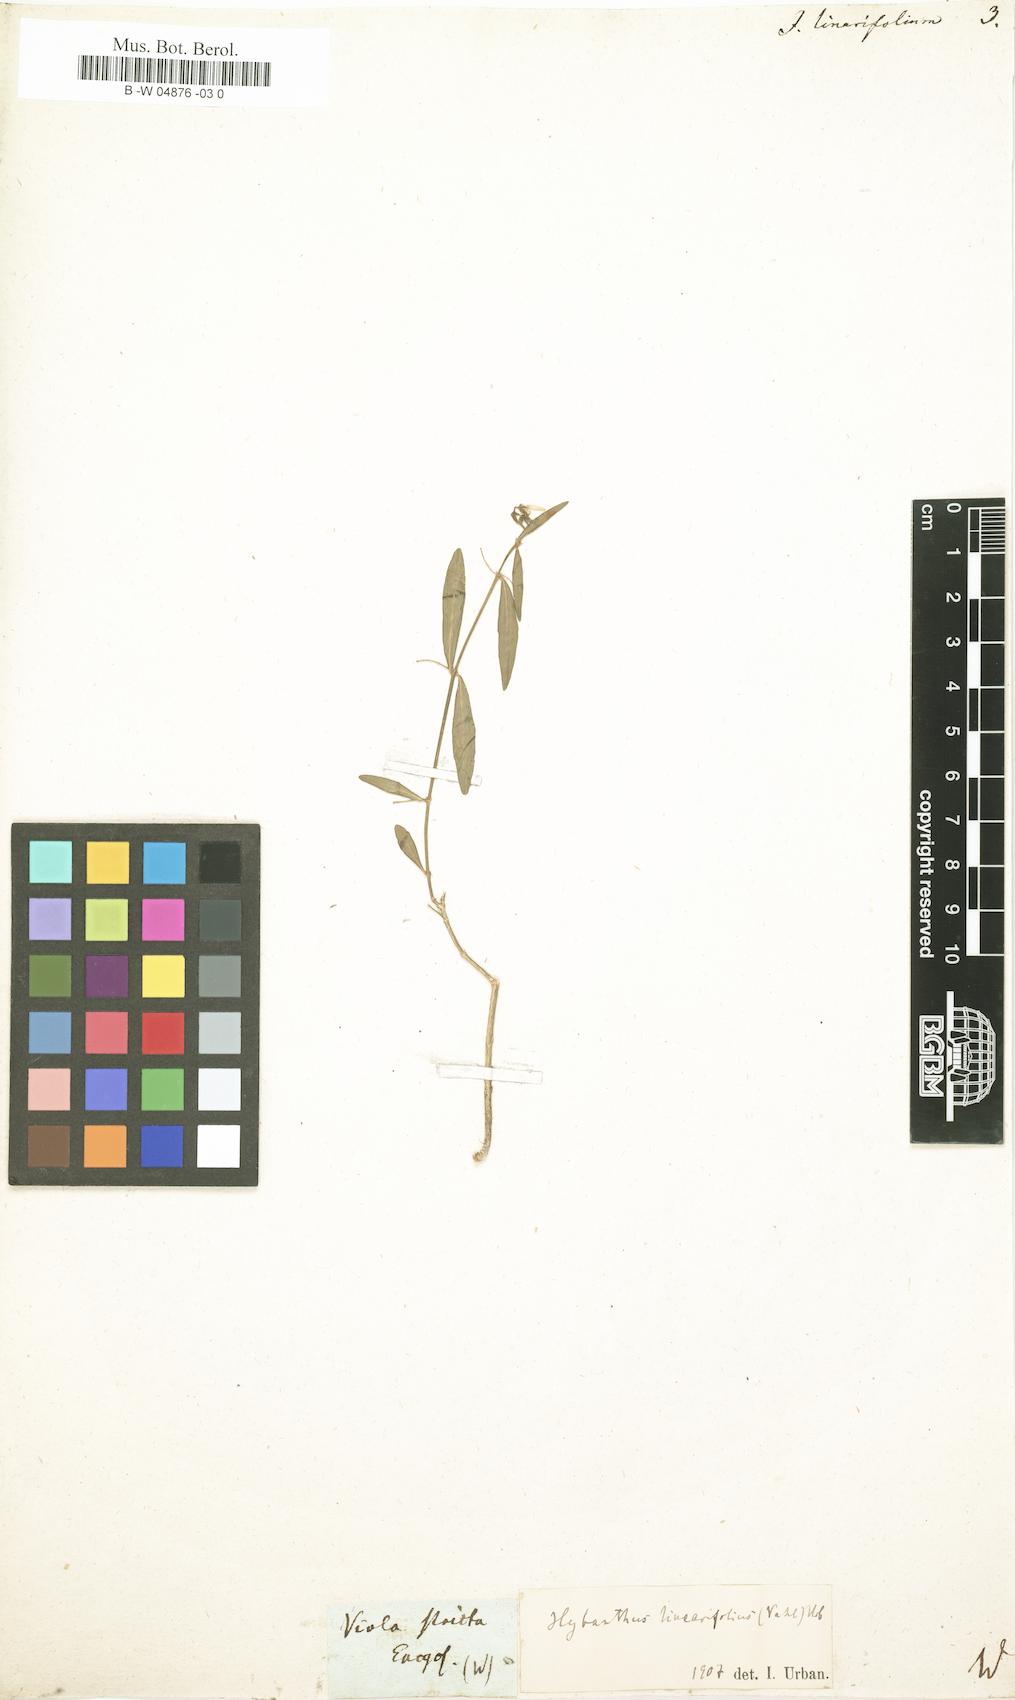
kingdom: Plantae
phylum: Tracheophyta
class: Magnoliopsida
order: Malpighiales
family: Violaceae
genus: Pombalia
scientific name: Pombalia linearifolia
